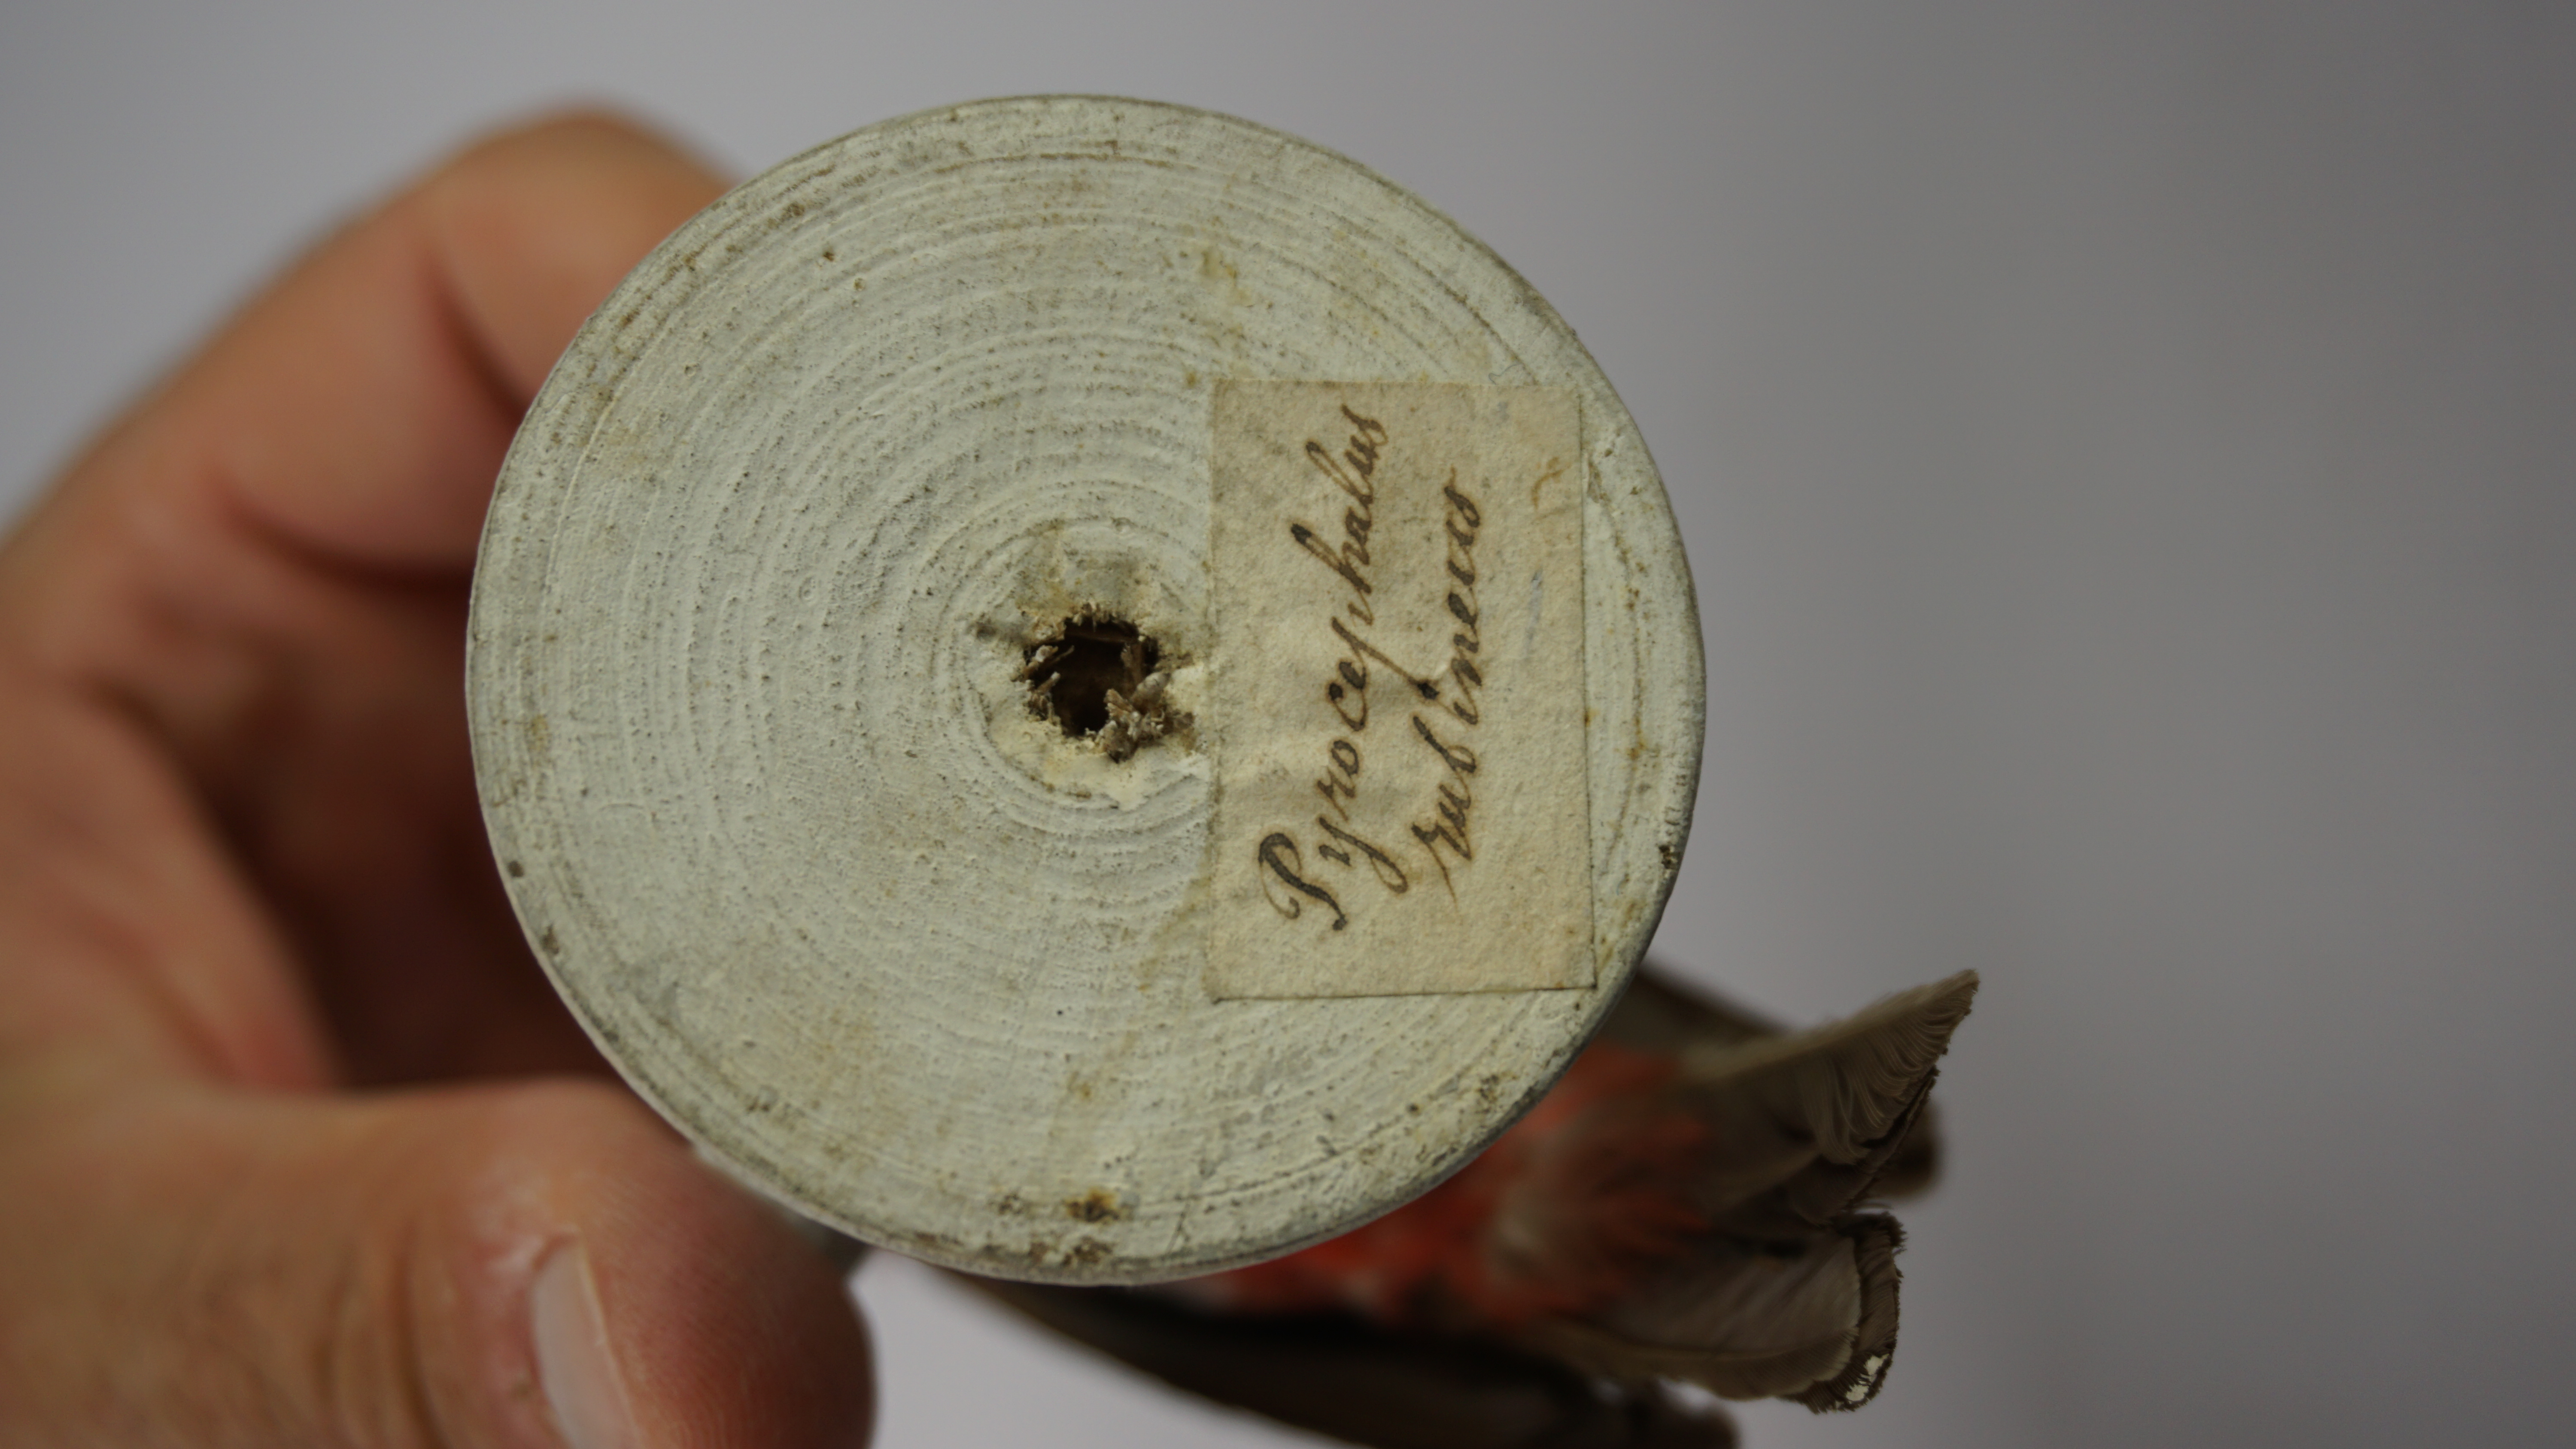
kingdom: Animalia
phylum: Chordata
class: Aves
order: Passeriformes
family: Tyrannidae
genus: Pyrocephalus
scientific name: Pyrocephalus rubinus
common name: Vermilion flycatcher
